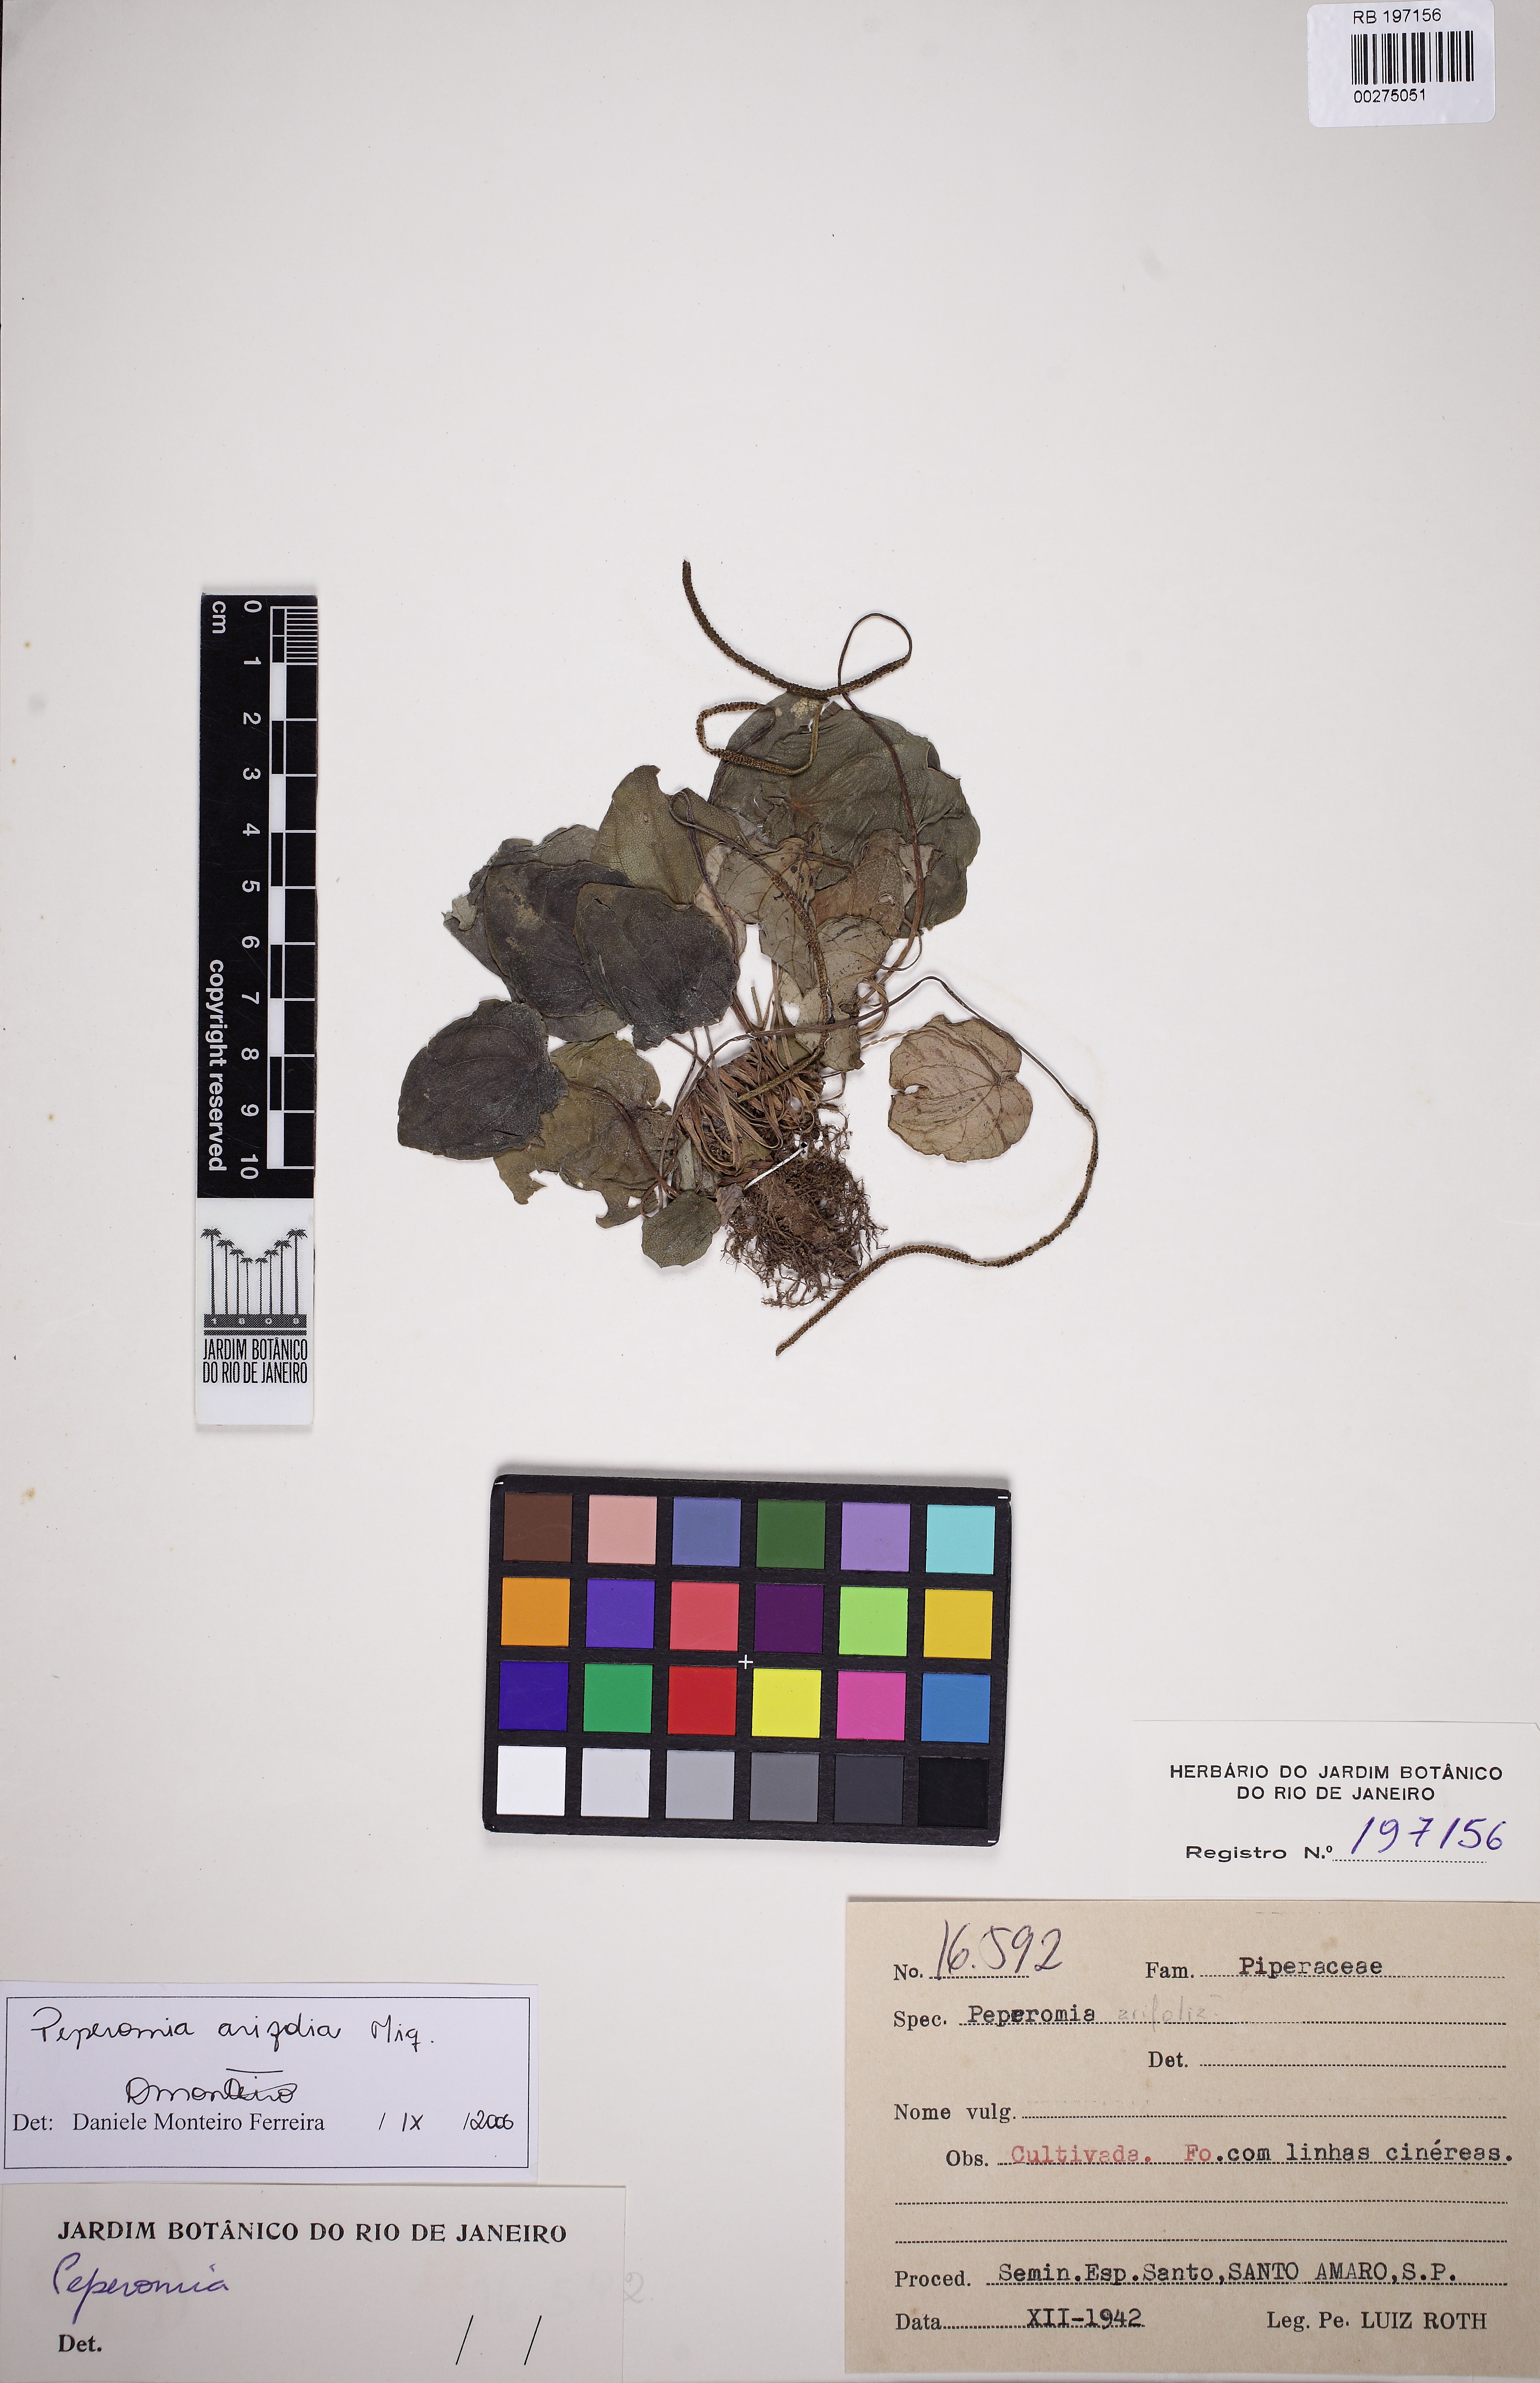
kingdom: Plantae
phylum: Tracheophyta
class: Magnoliopsida
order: Piperales
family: Piperaceae
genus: Peperomia
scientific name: Peperomia arifolia
